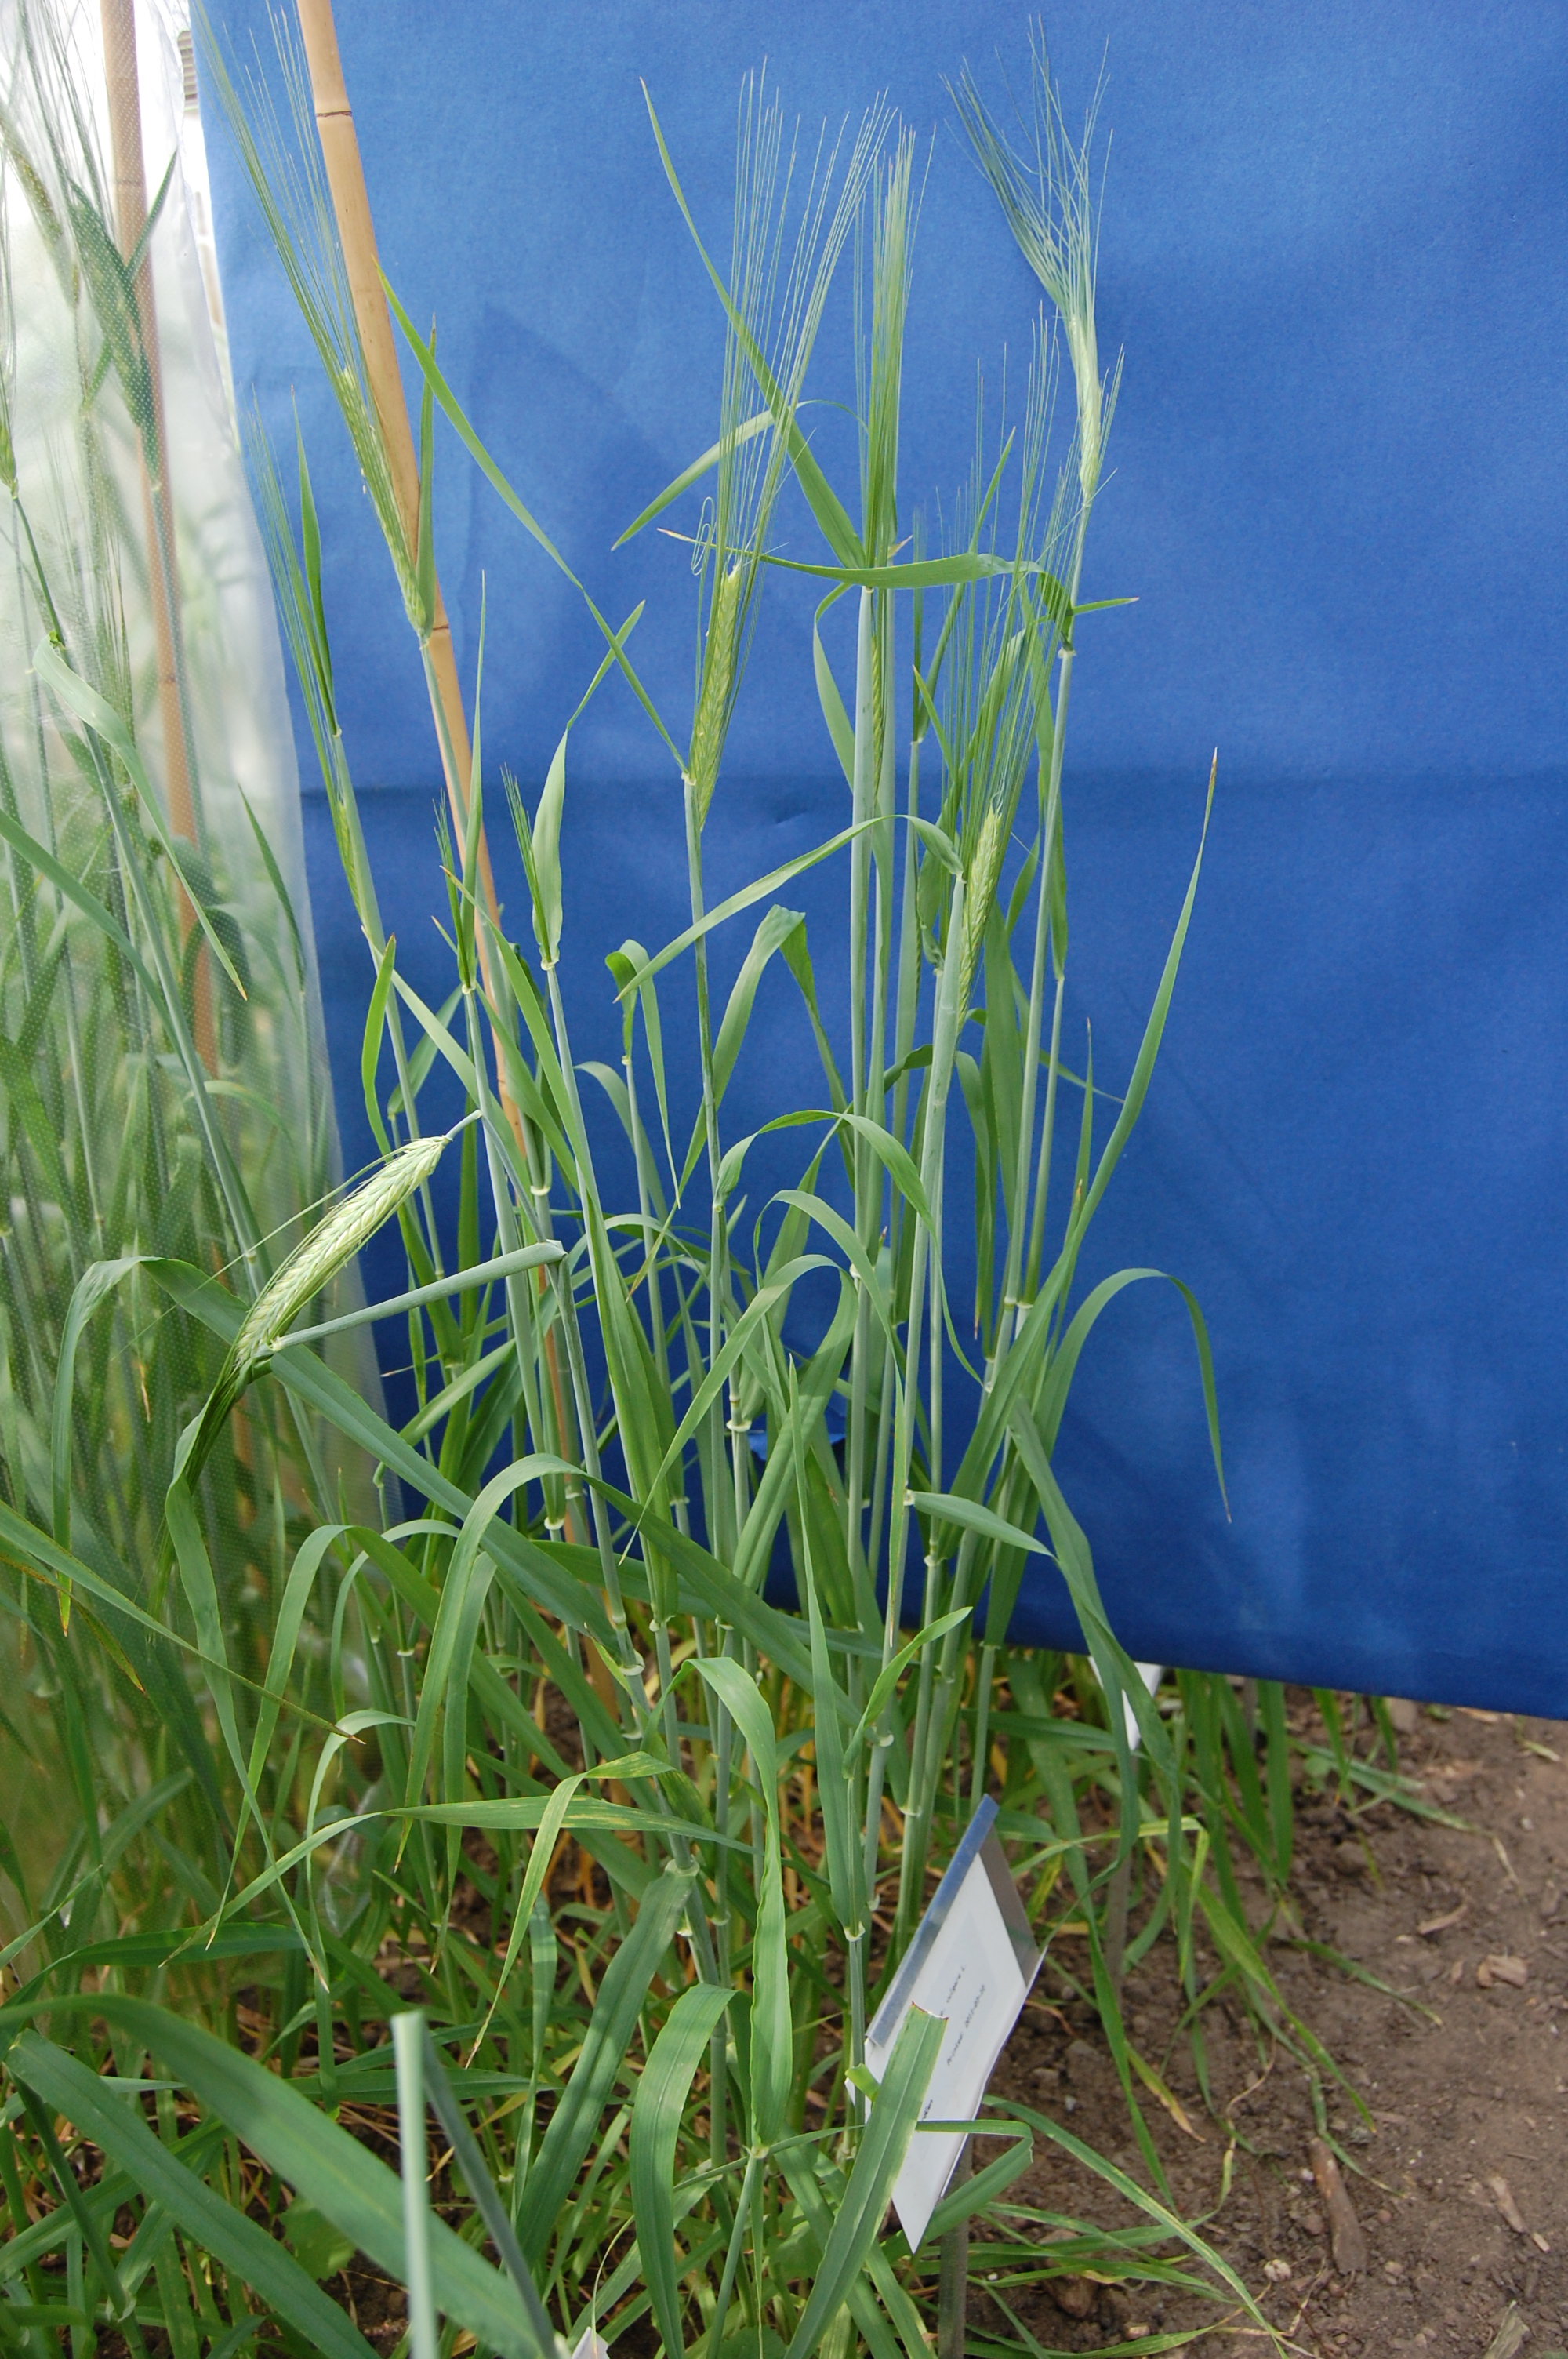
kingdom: Plantae
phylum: Tracheophyta
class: Liliopsida
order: Poales
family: Poaceae
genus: Hordeum
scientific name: Hordeum vulgare
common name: Common barley
